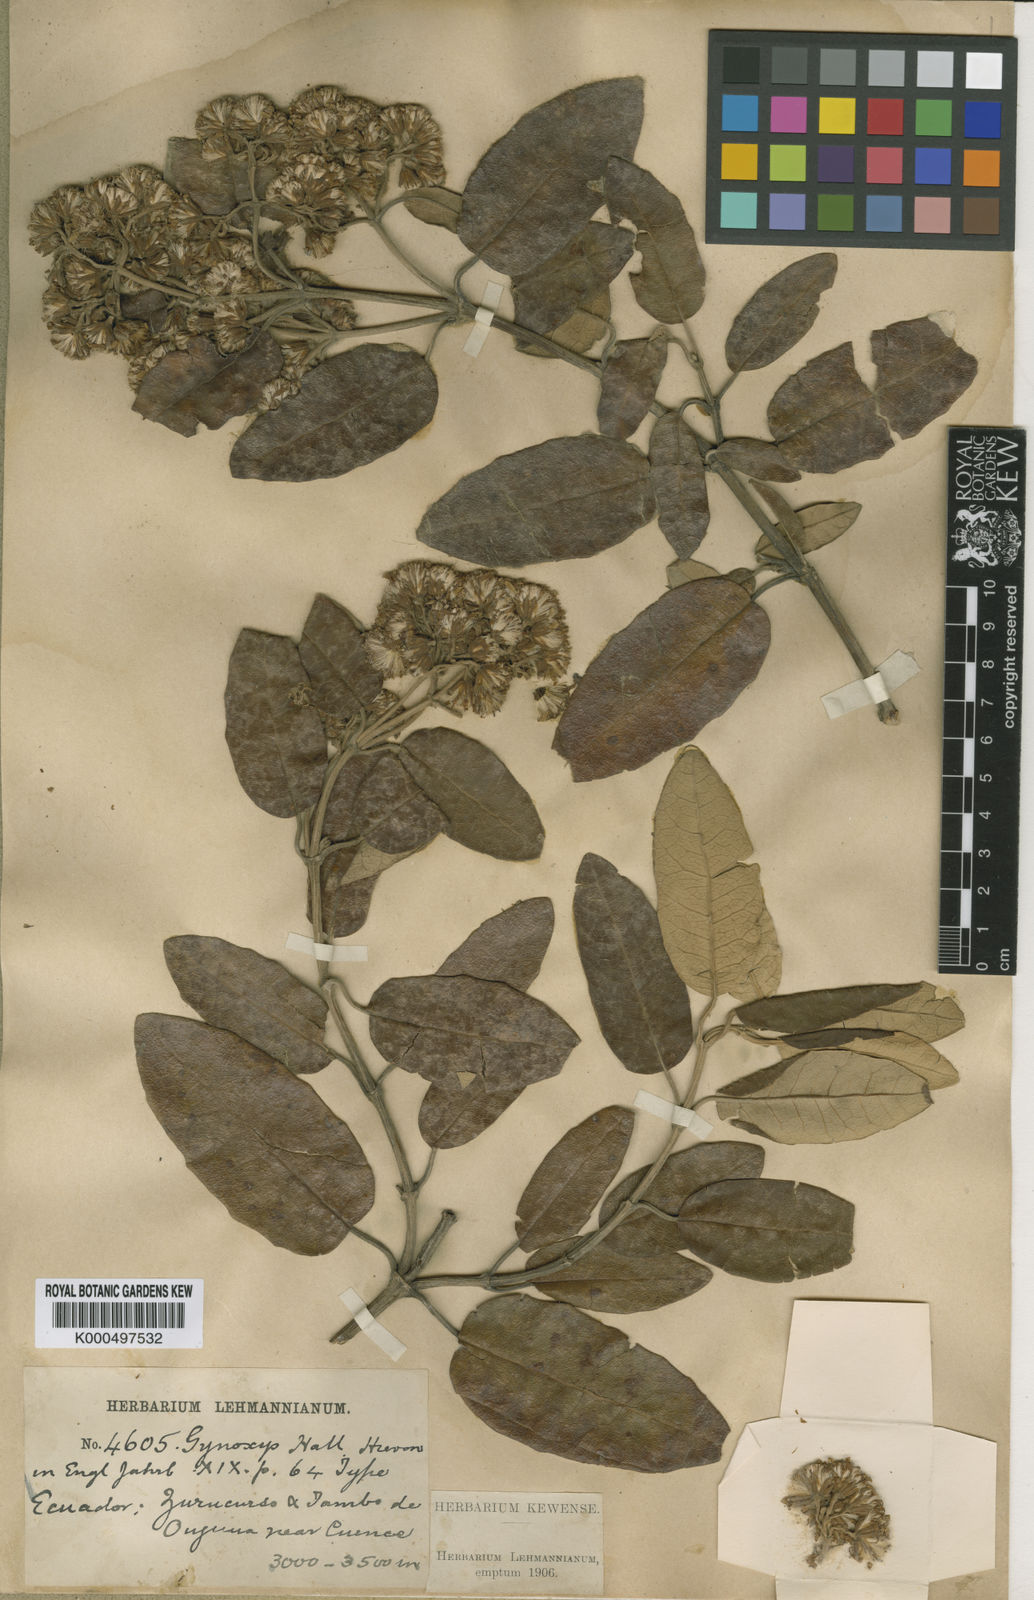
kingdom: Plantae
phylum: Tracheophyta
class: Magnoliopsida
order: Asterales
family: Asteraceae
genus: Gynoxys
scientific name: Gynoxys hallii
